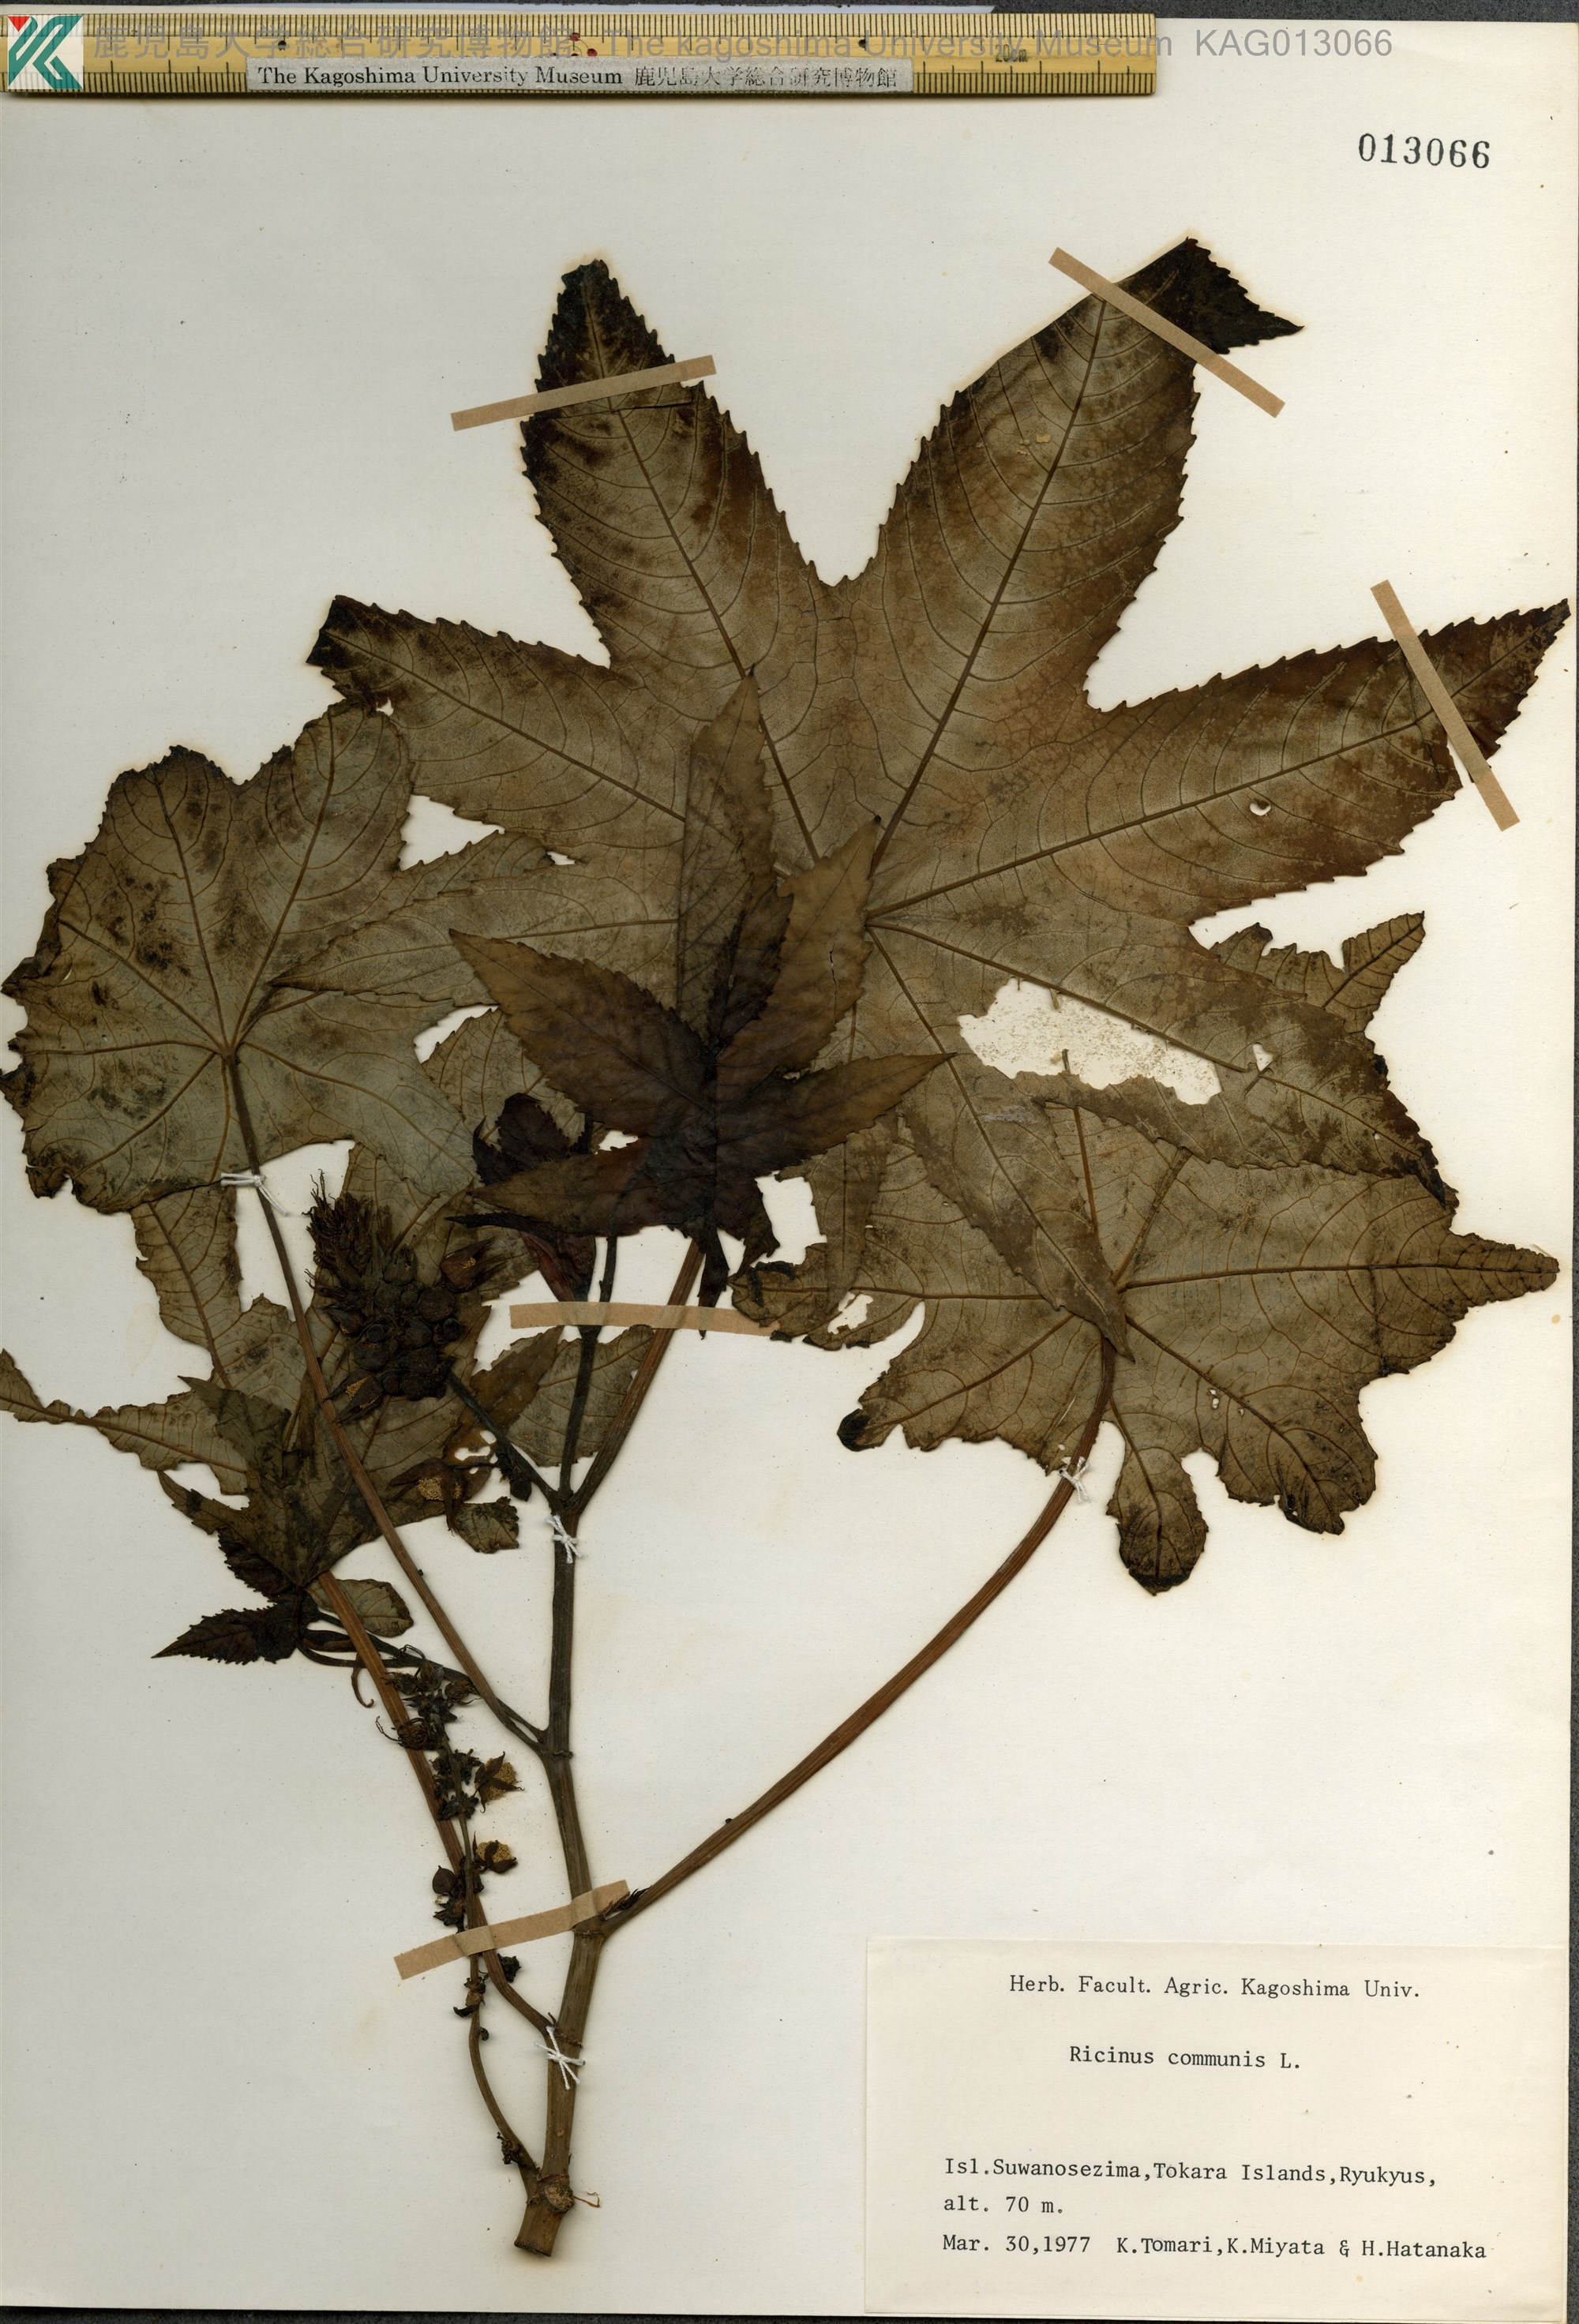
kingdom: Plantae
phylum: Tracheophyta
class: Magnoliopsida
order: Malpighiales
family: Euphorbiaceae
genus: Ricinus
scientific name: Ricinus communis
